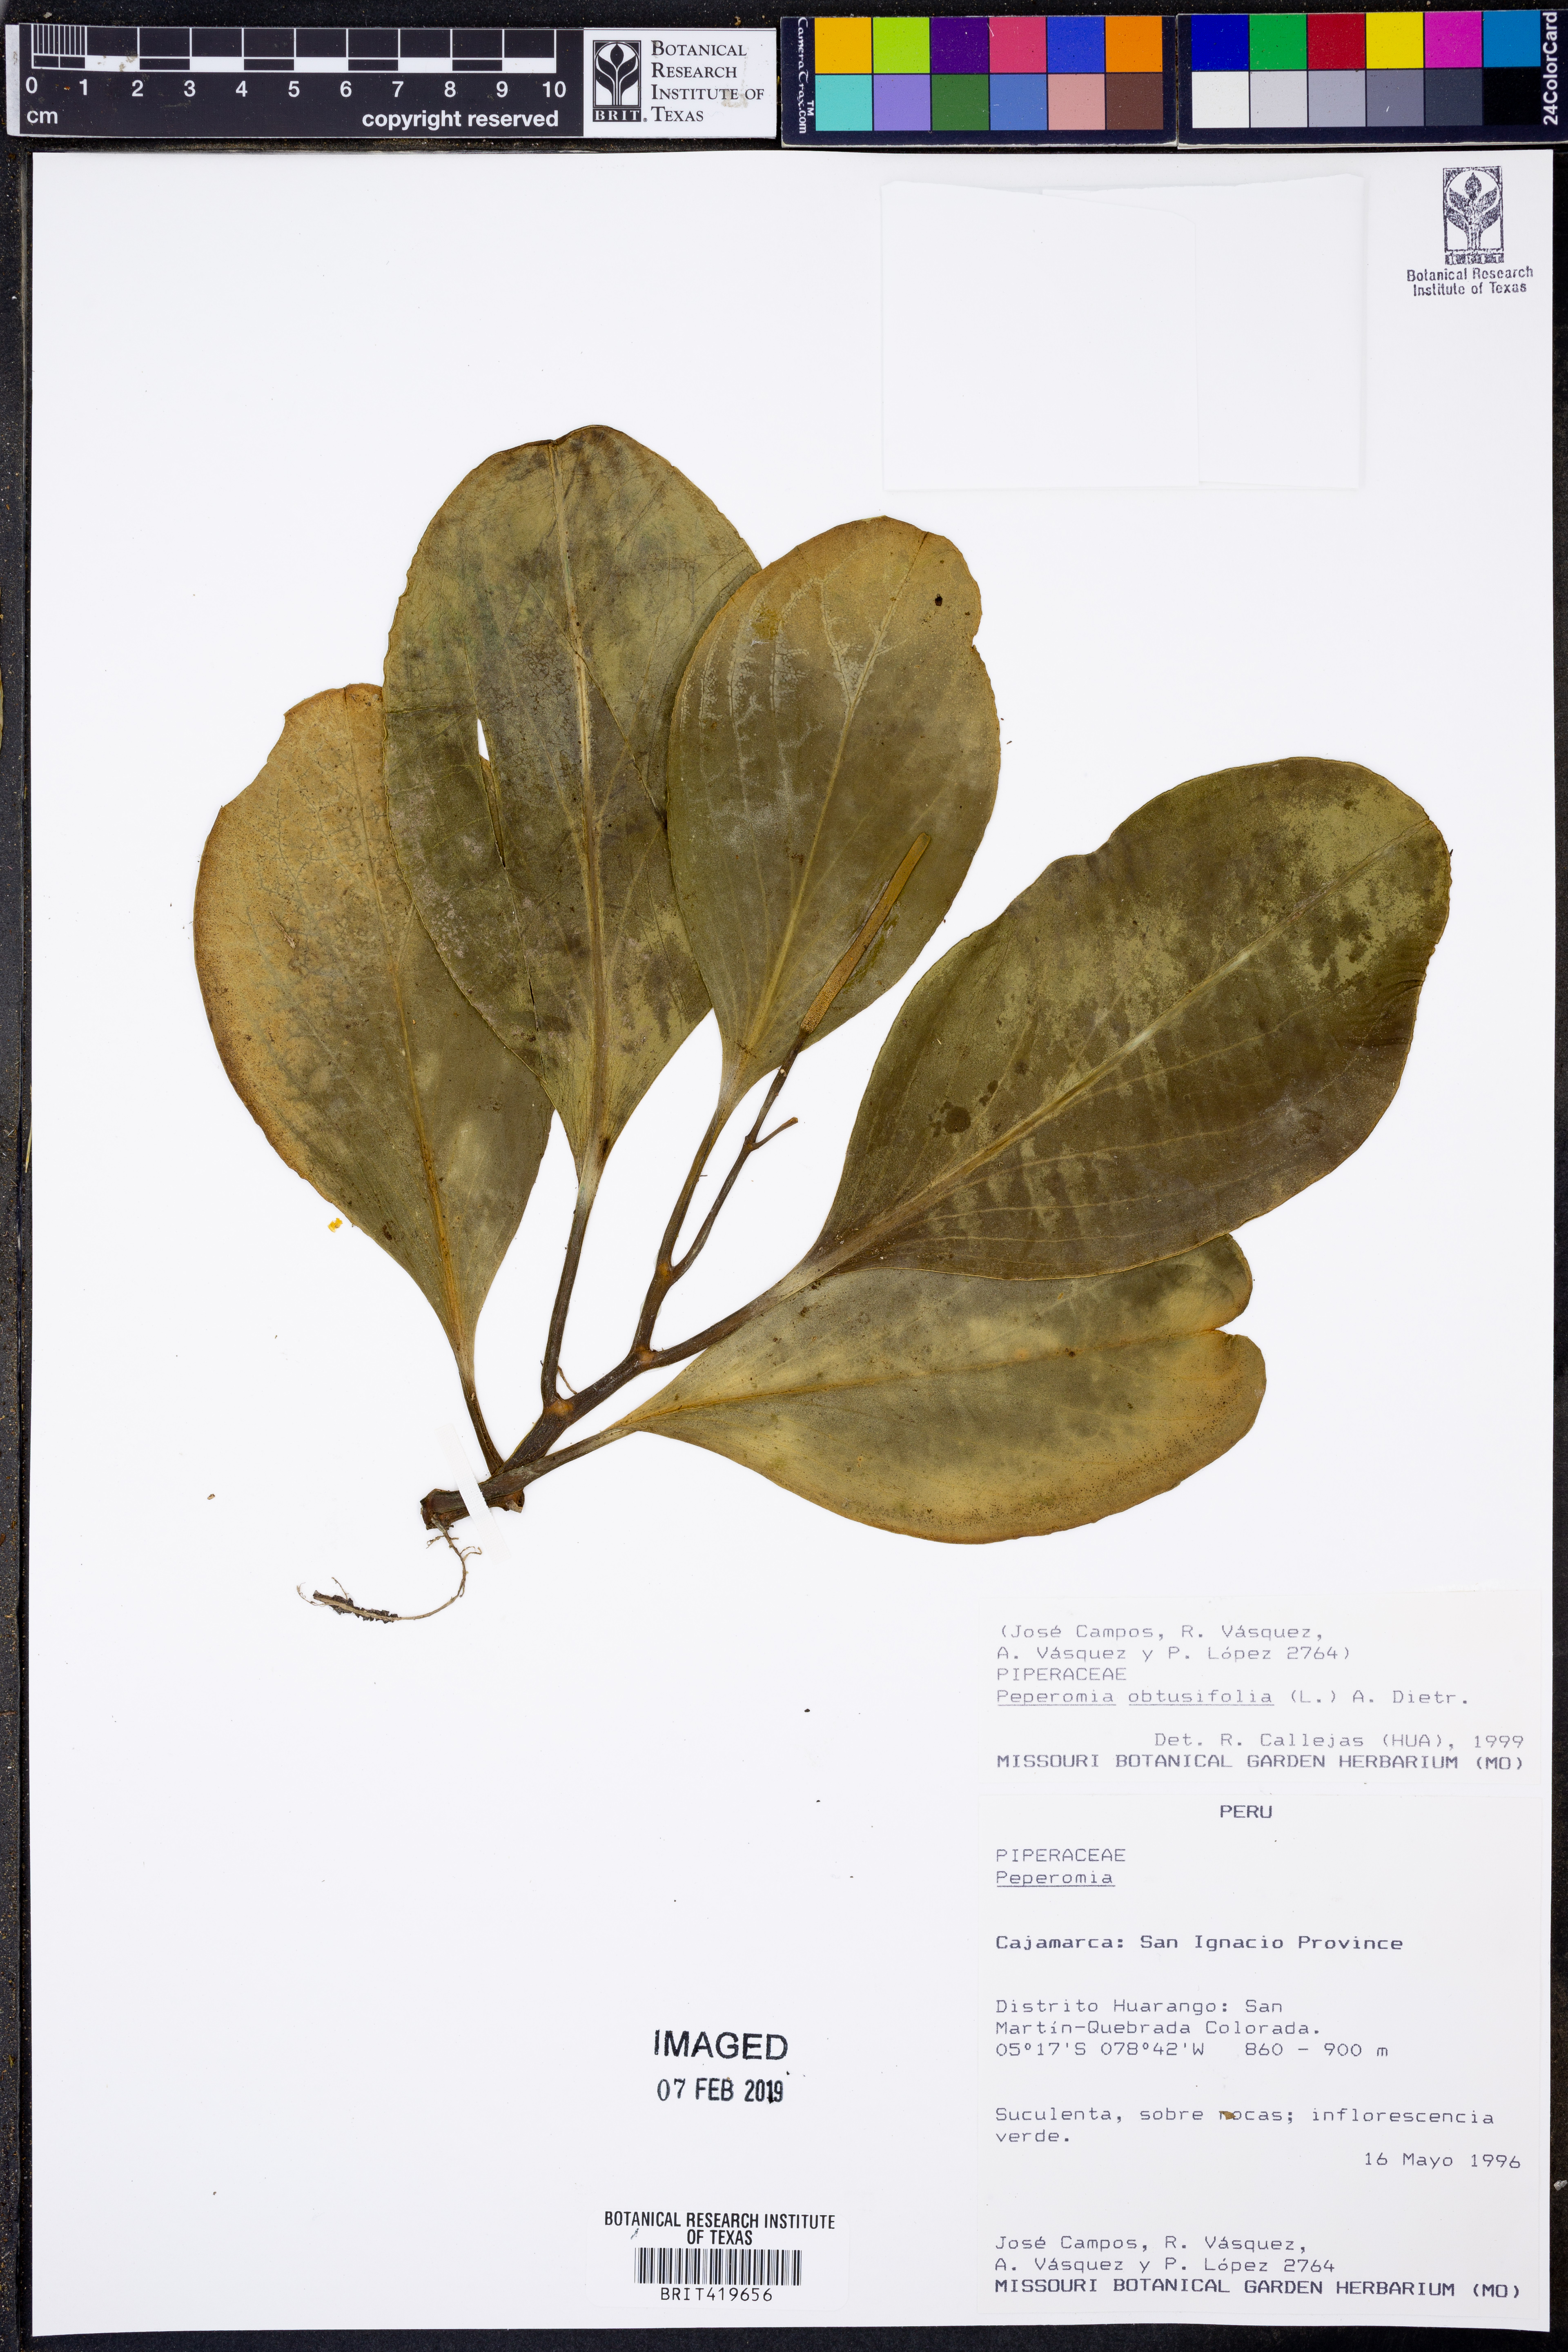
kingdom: Plantae
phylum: Tracheophyta
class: Magnoliopsida
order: Piperales
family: Piperaceae
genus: Peperomia
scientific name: Peperomia obtusifolia
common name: Baby rubberplant
